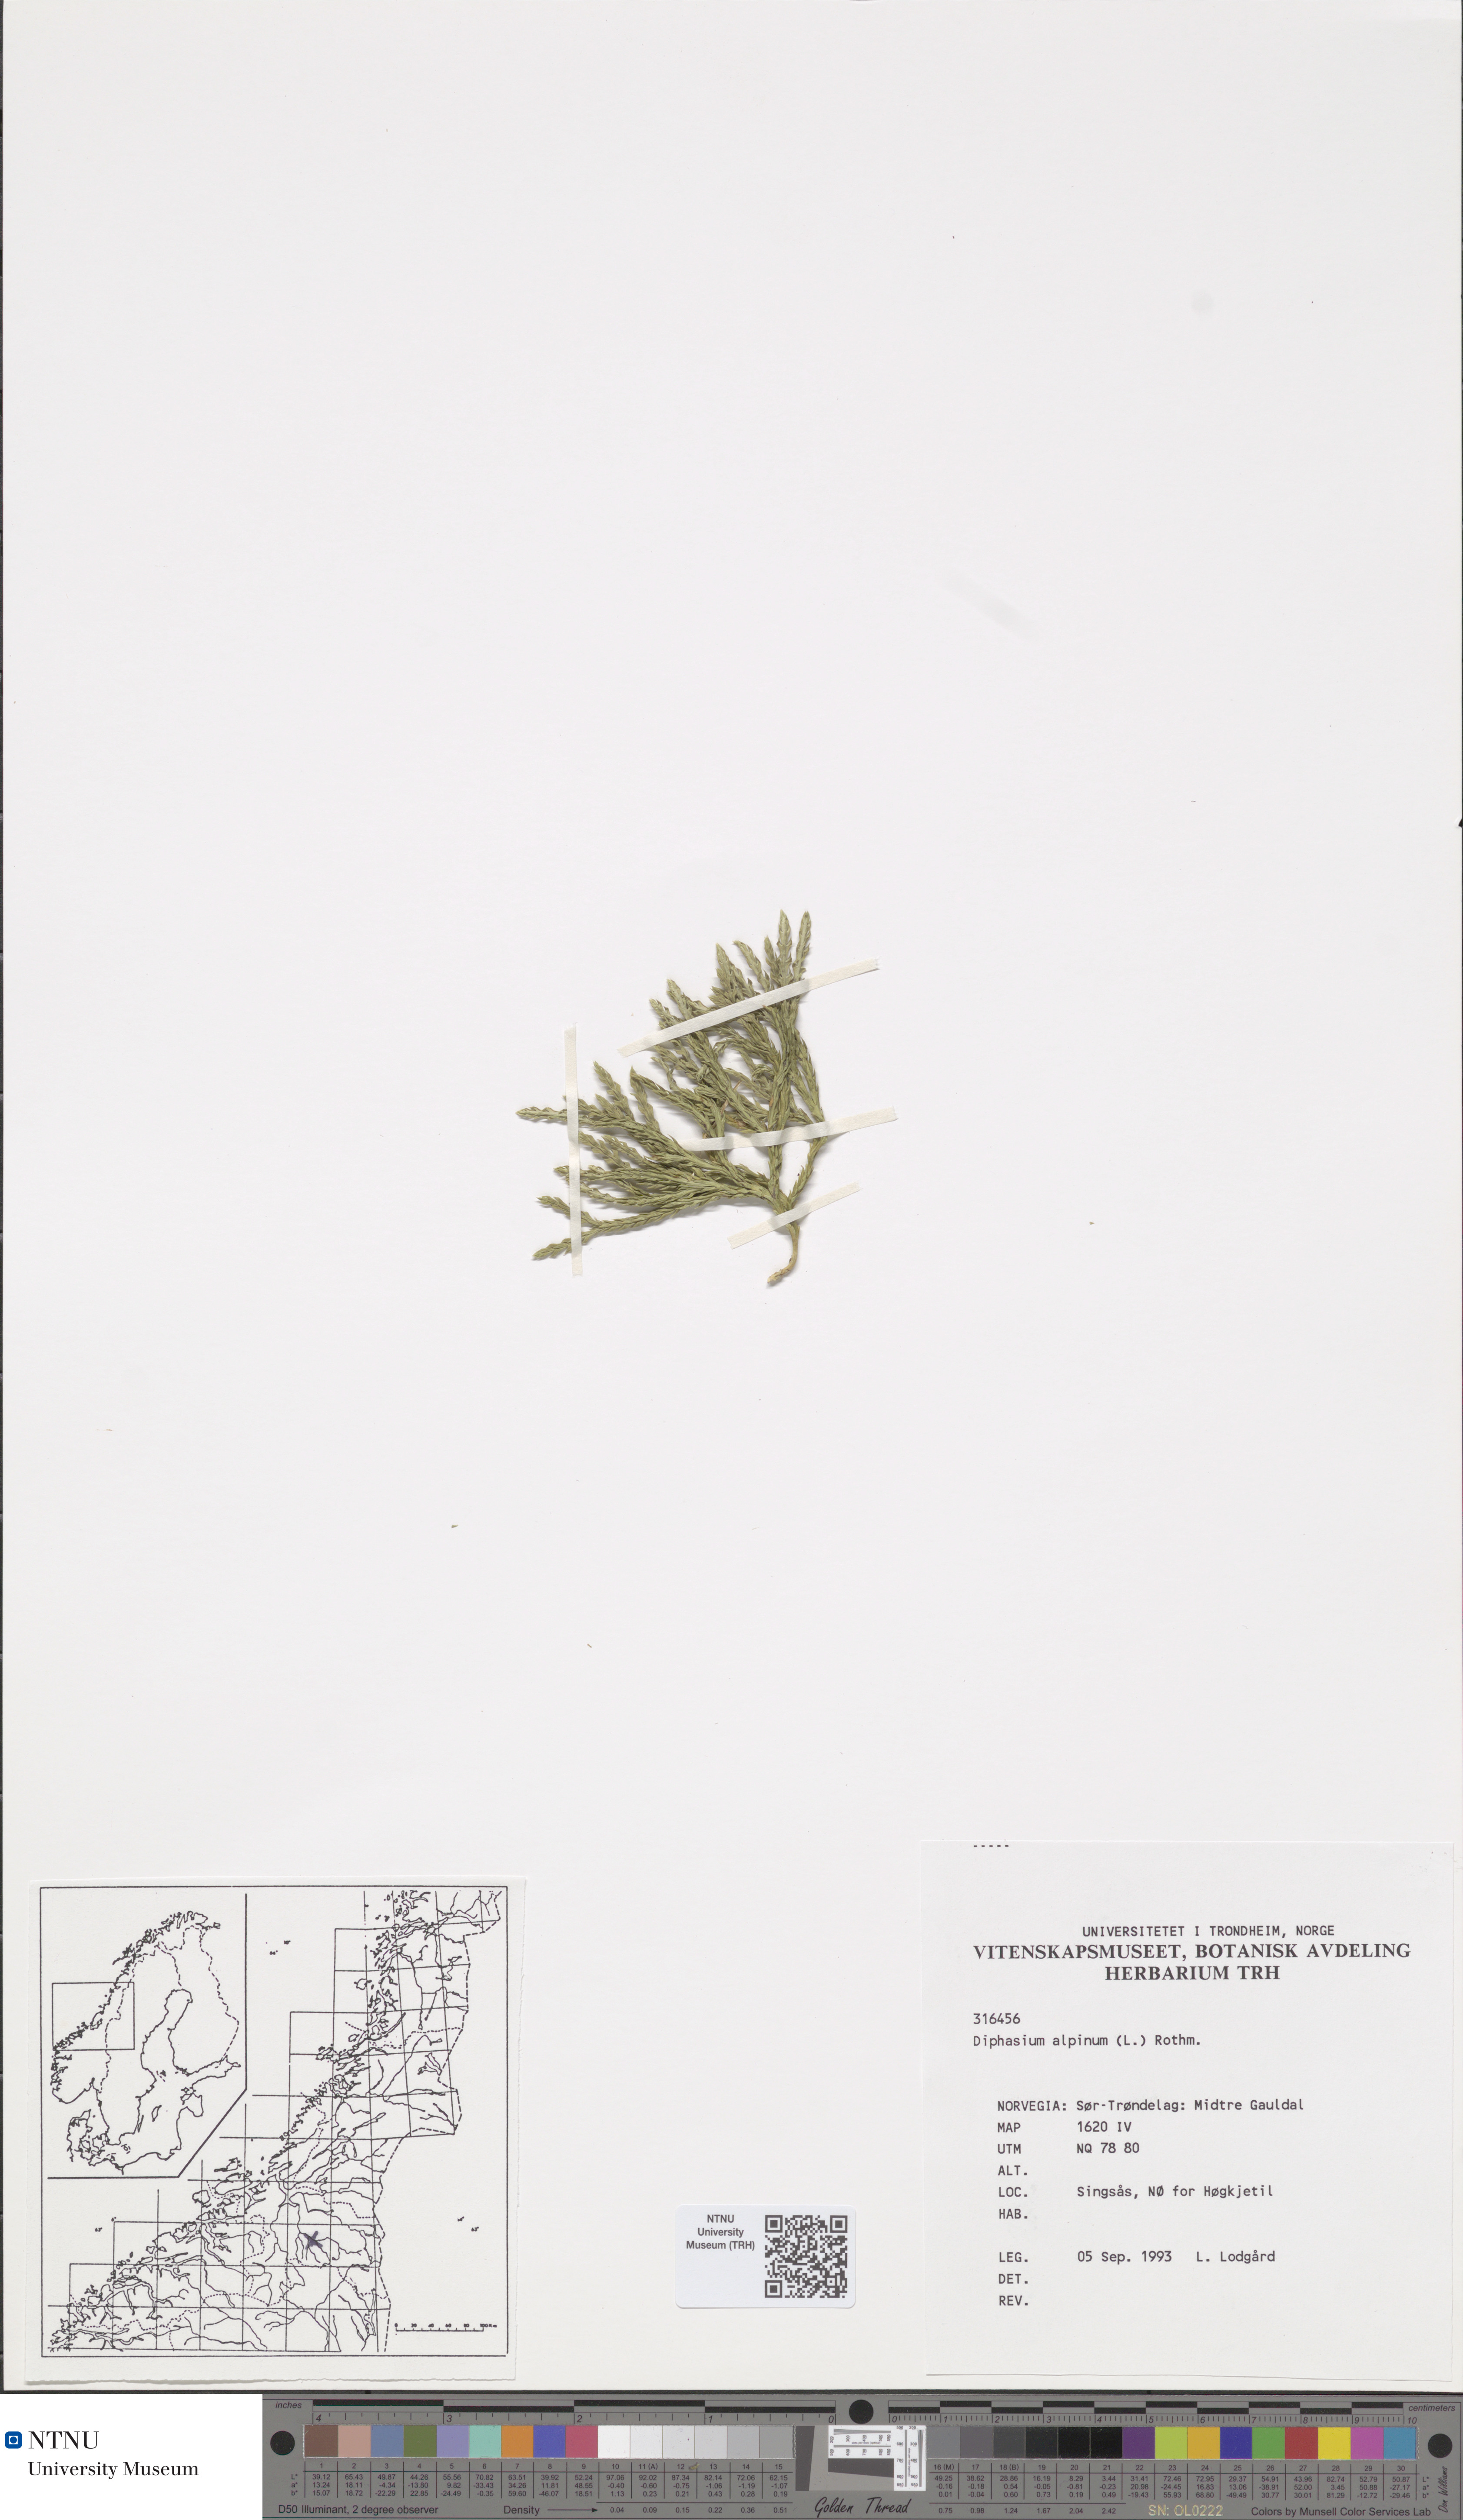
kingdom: Plantae
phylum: Tracheophyta
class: Lycopodiopsida
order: Lycopodiales
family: Lycopodiaceae
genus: Diphasiastrum
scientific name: Diphasiastrum alpinum
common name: Alpine clubmoss
